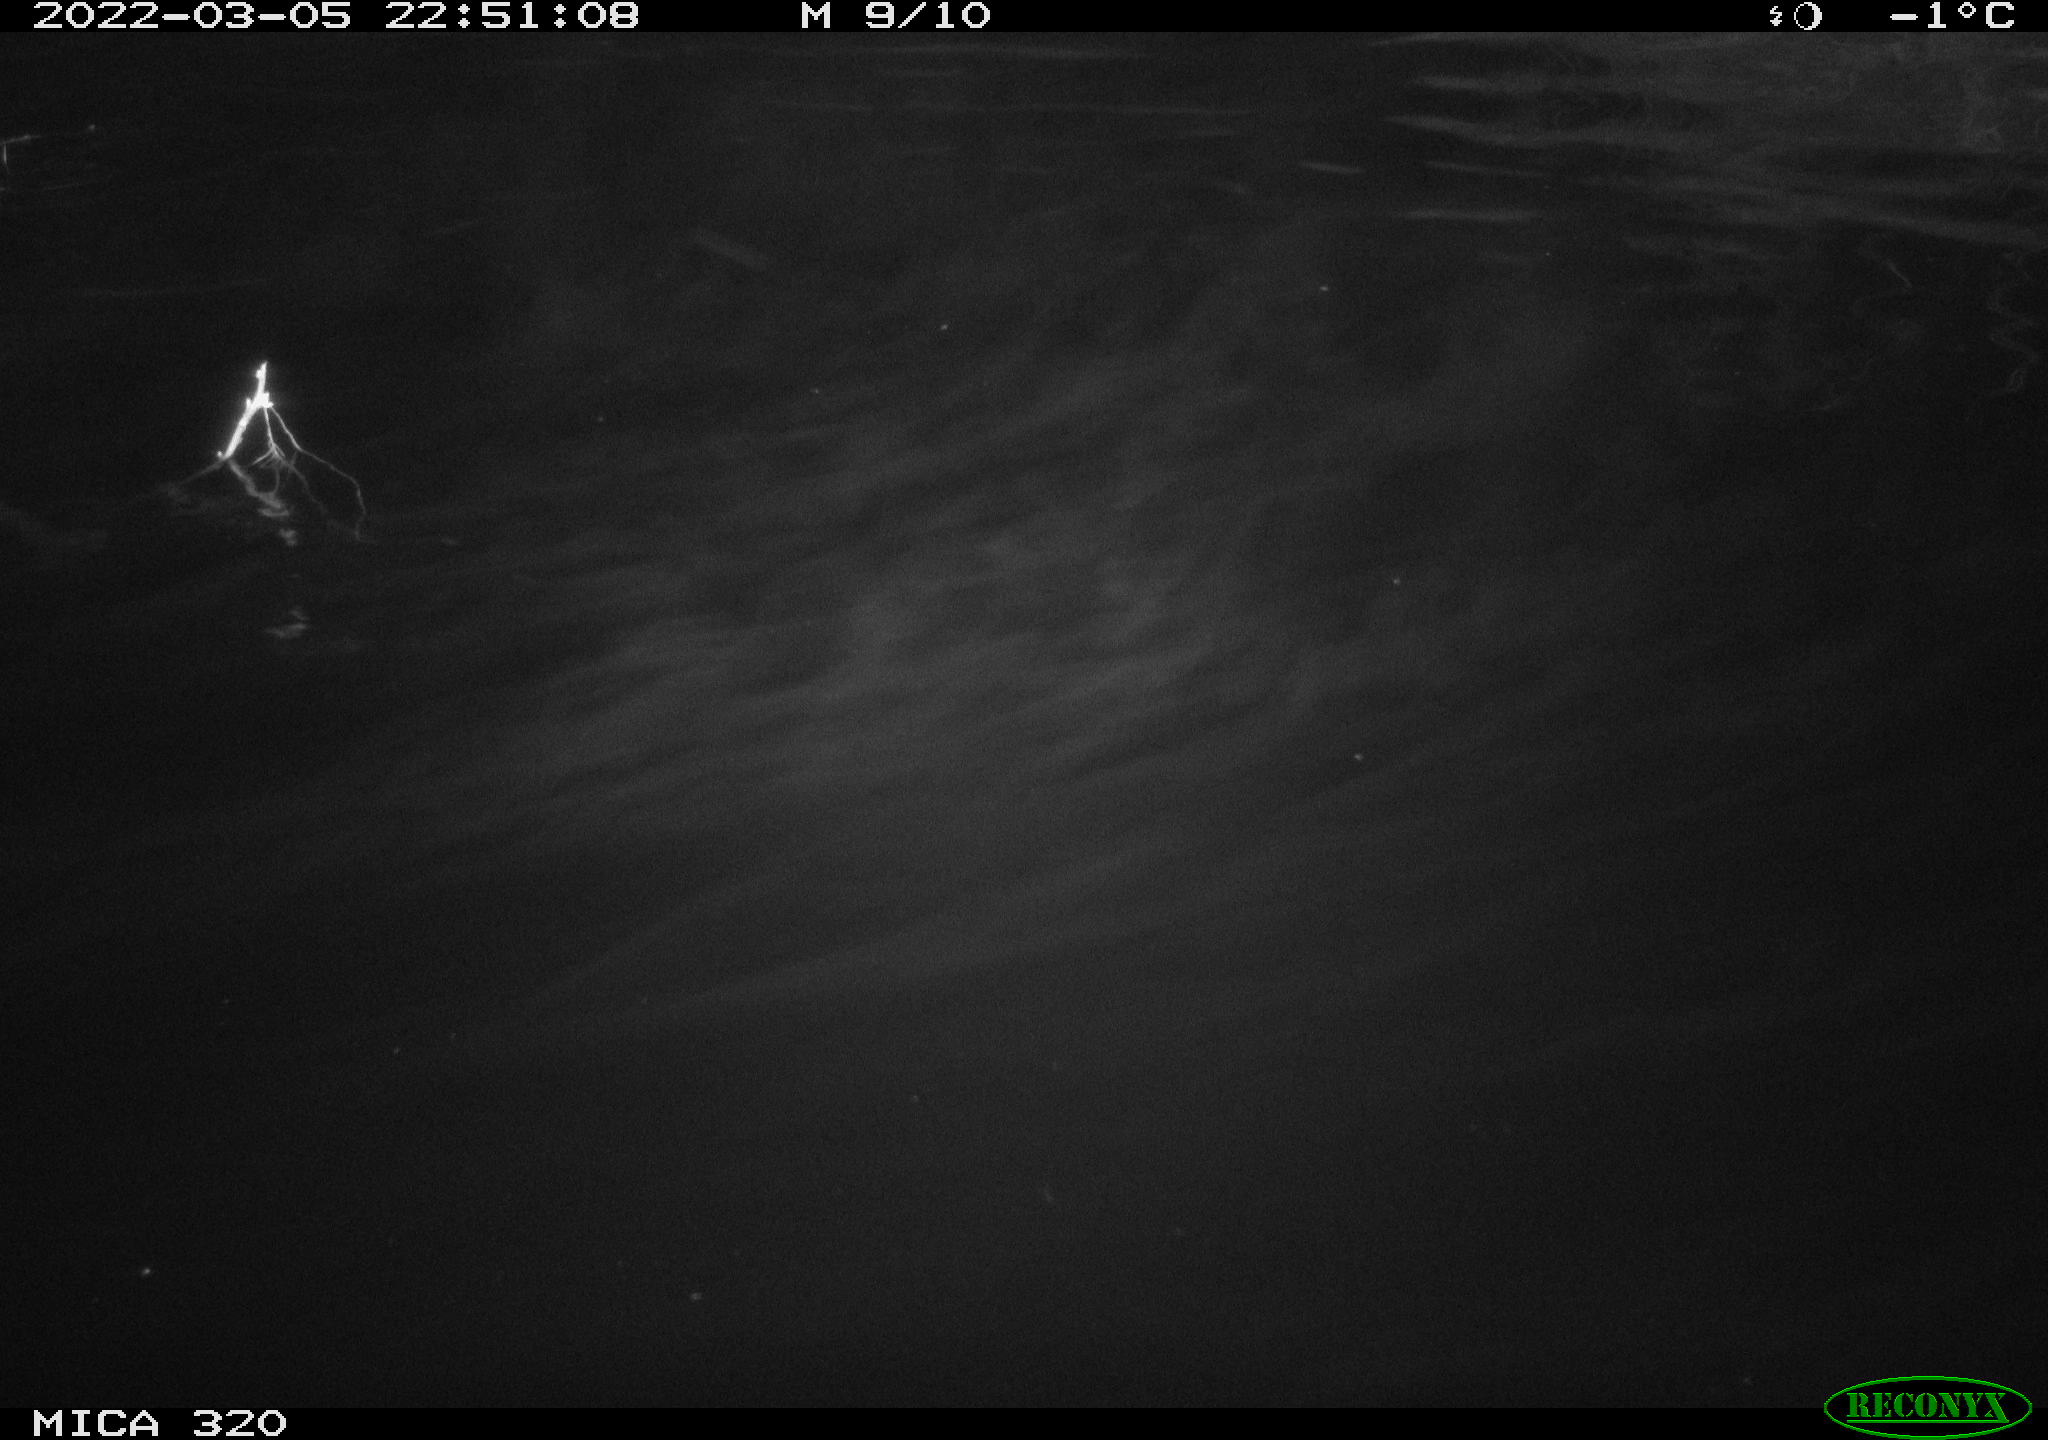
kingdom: Animalia
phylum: Chordata
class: Aves
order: Anseriformes
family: Anatidae
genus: Anas
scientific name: Anas platyrhynchos
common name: Mallard
